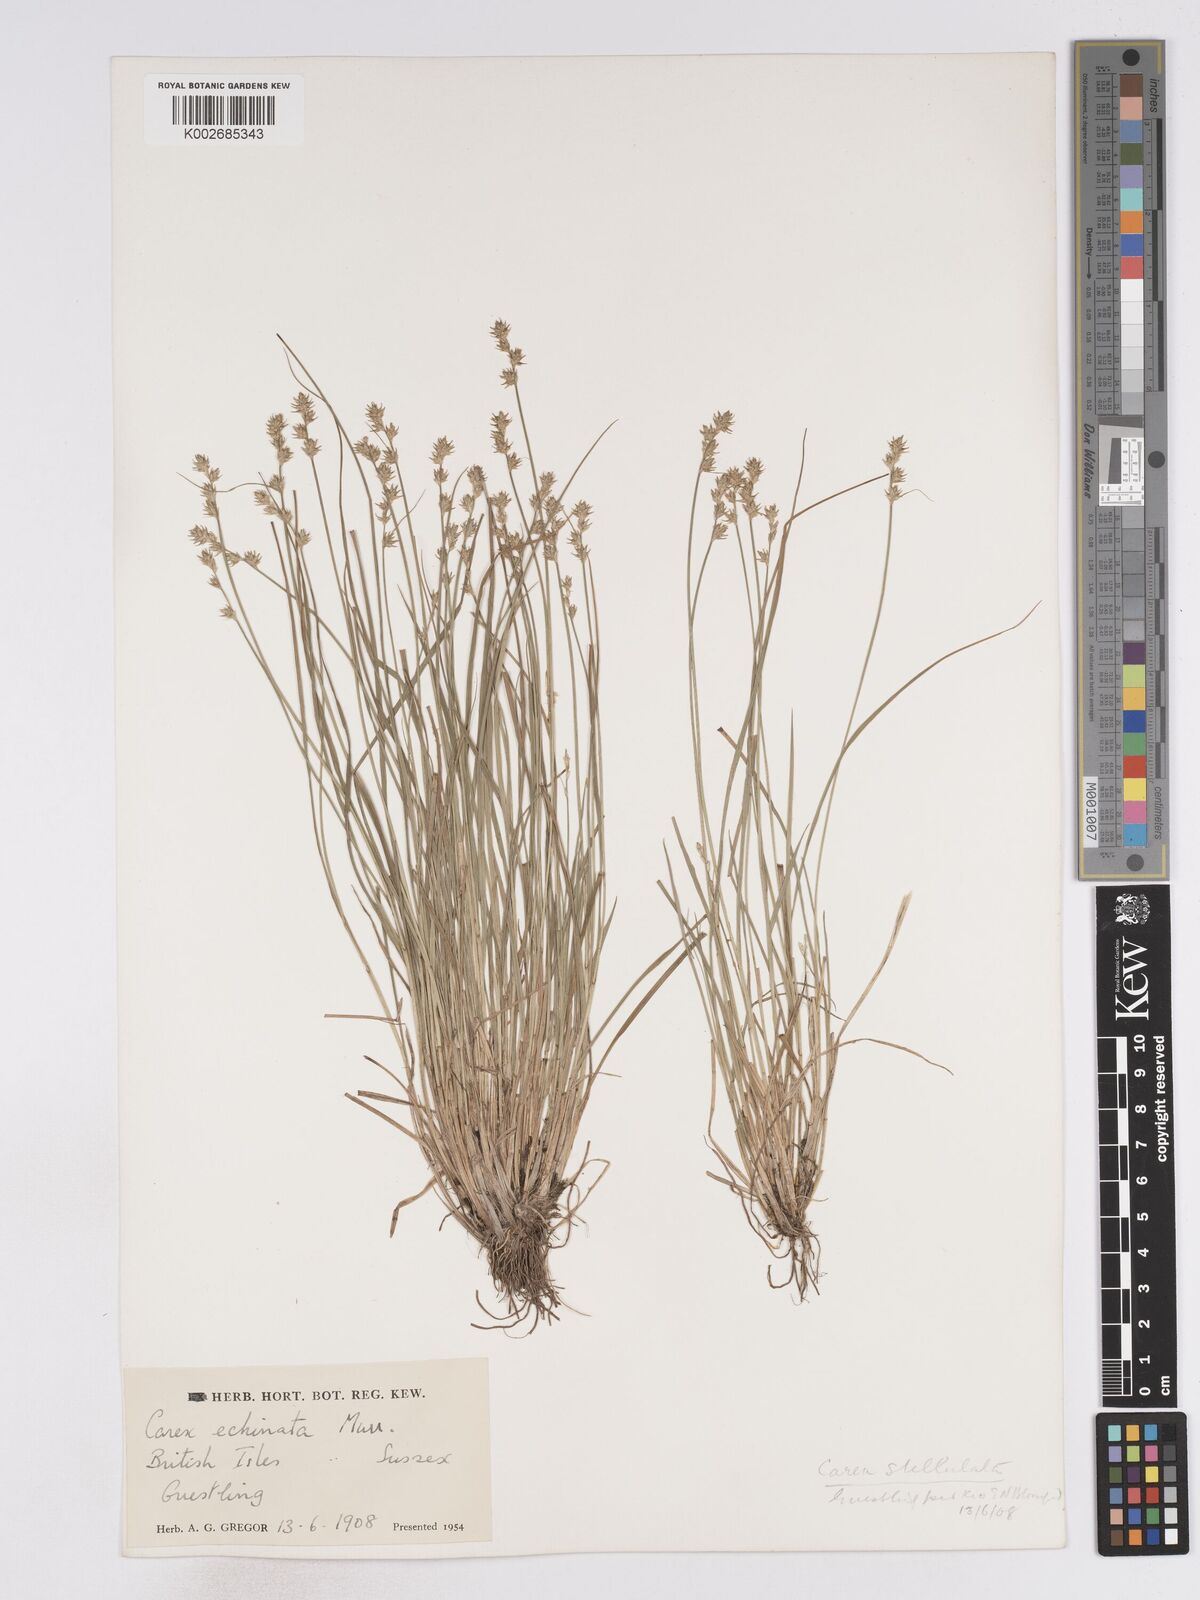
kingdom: Plantae
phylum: Tracheophyta
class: Liliopsida
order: Poales
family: Cyperaceae
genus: Carex
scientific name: Carex echinata
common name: Star sedge
